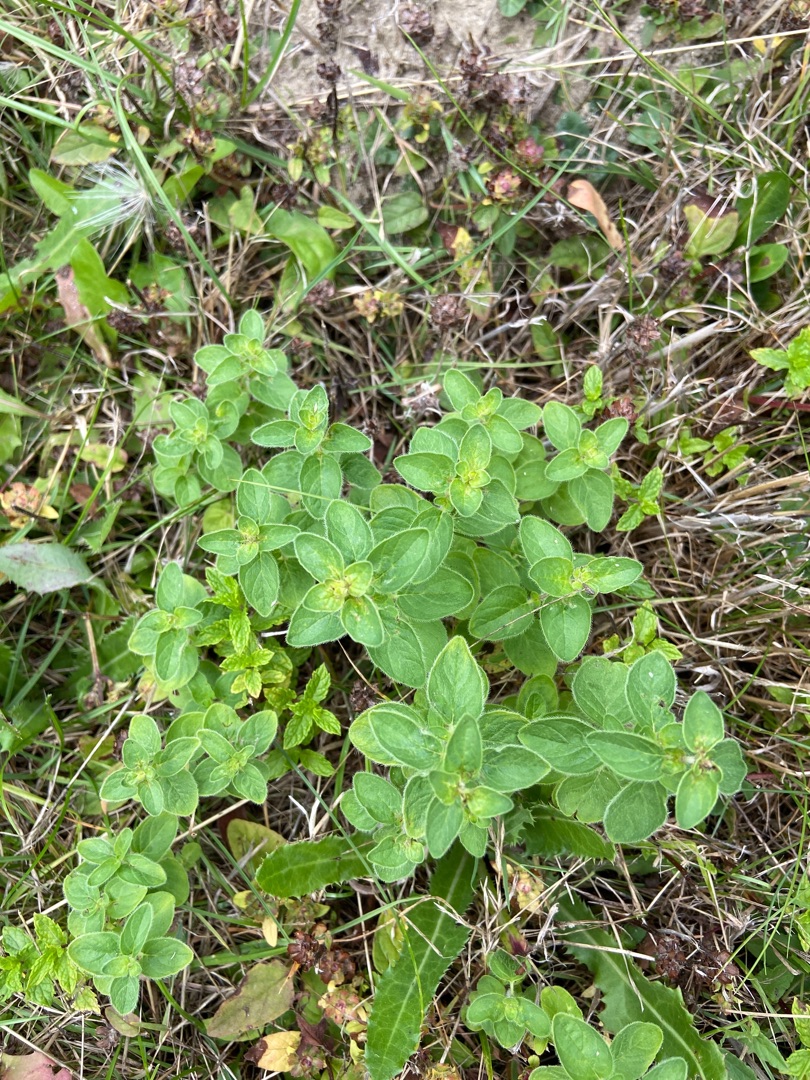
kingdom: Plantae
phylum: Tracheophyta
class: Magnoliopsida
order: Lamiales
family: Lamiaceae
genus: Origanum
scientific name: Origanum vulgare
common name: Merian
